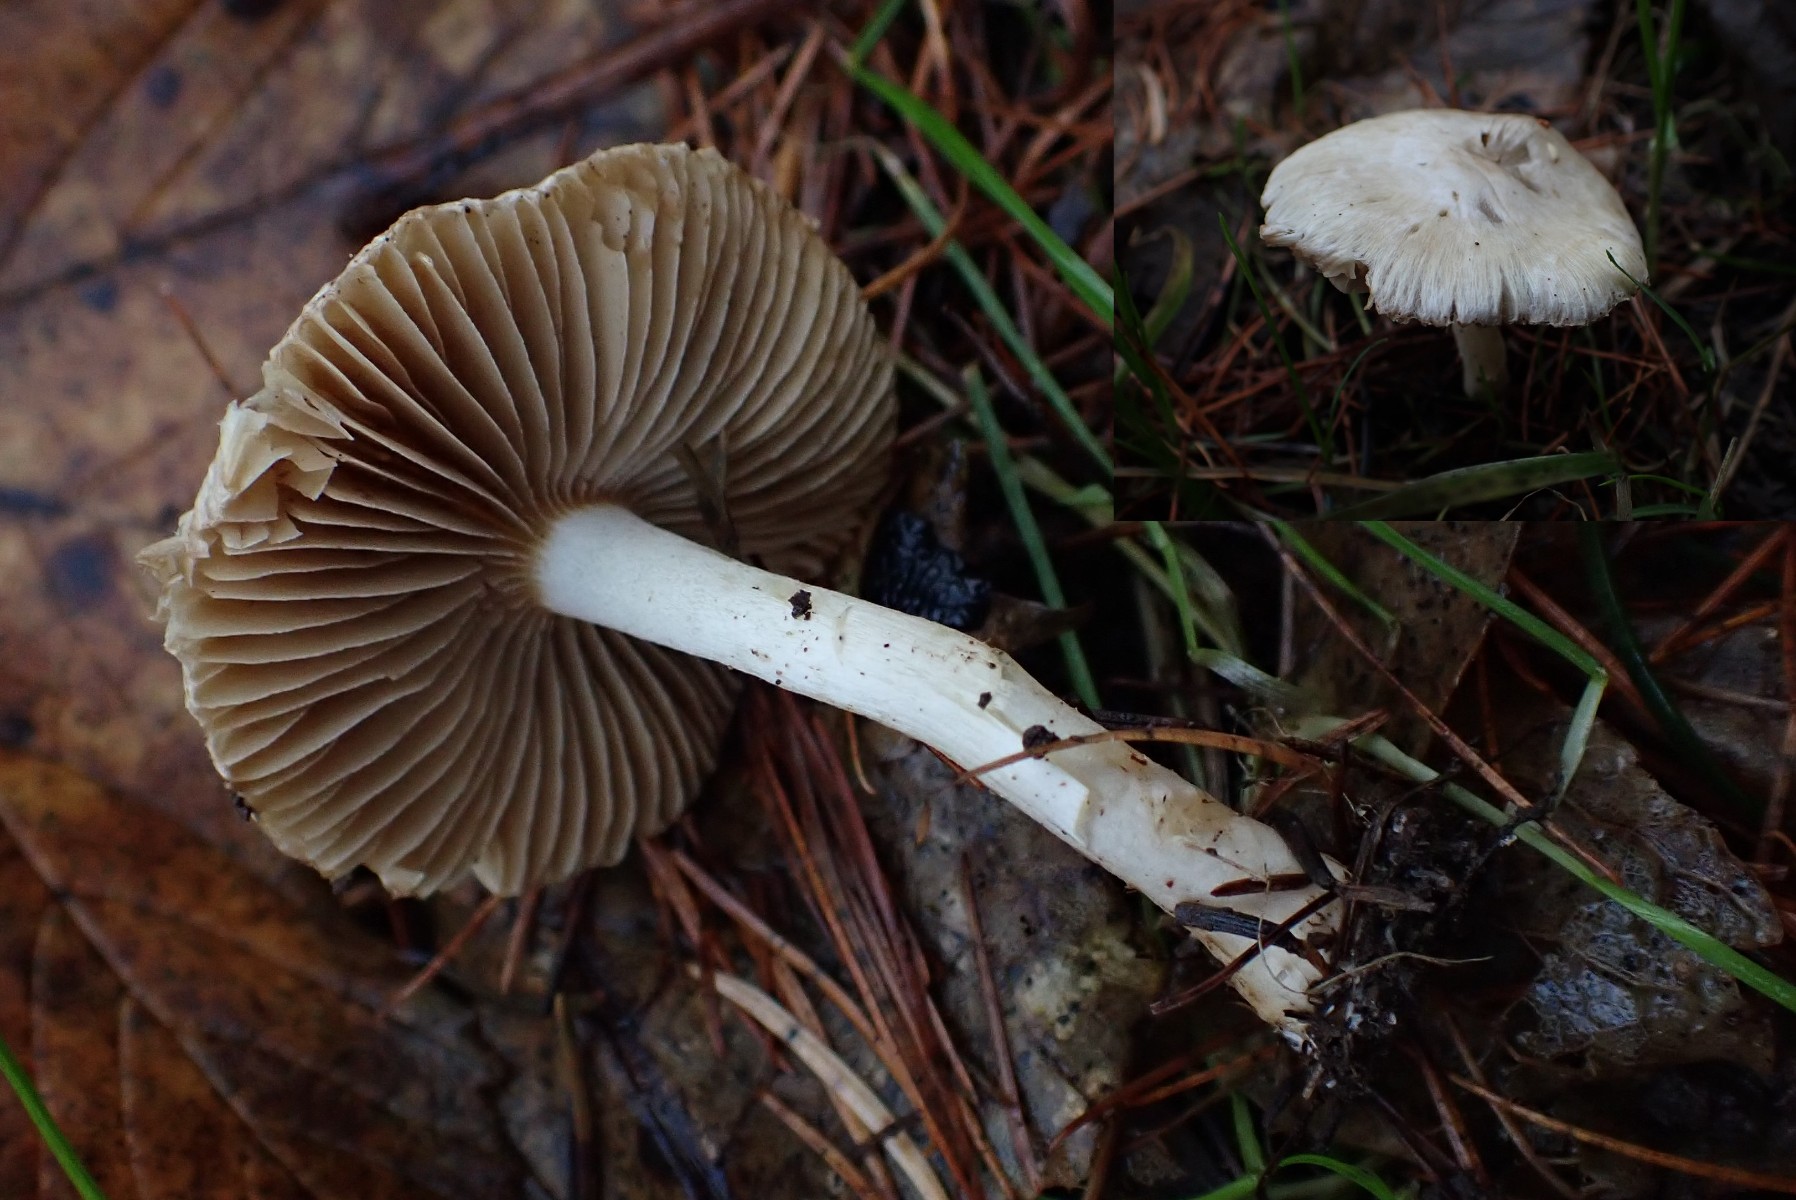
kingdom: Fungi
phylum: Basidiomycota
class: Agaricomycetes
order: Agaricales
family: Inocybaceae
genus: Inocybe
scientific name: Inocybe
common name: almindelig trævlhat
